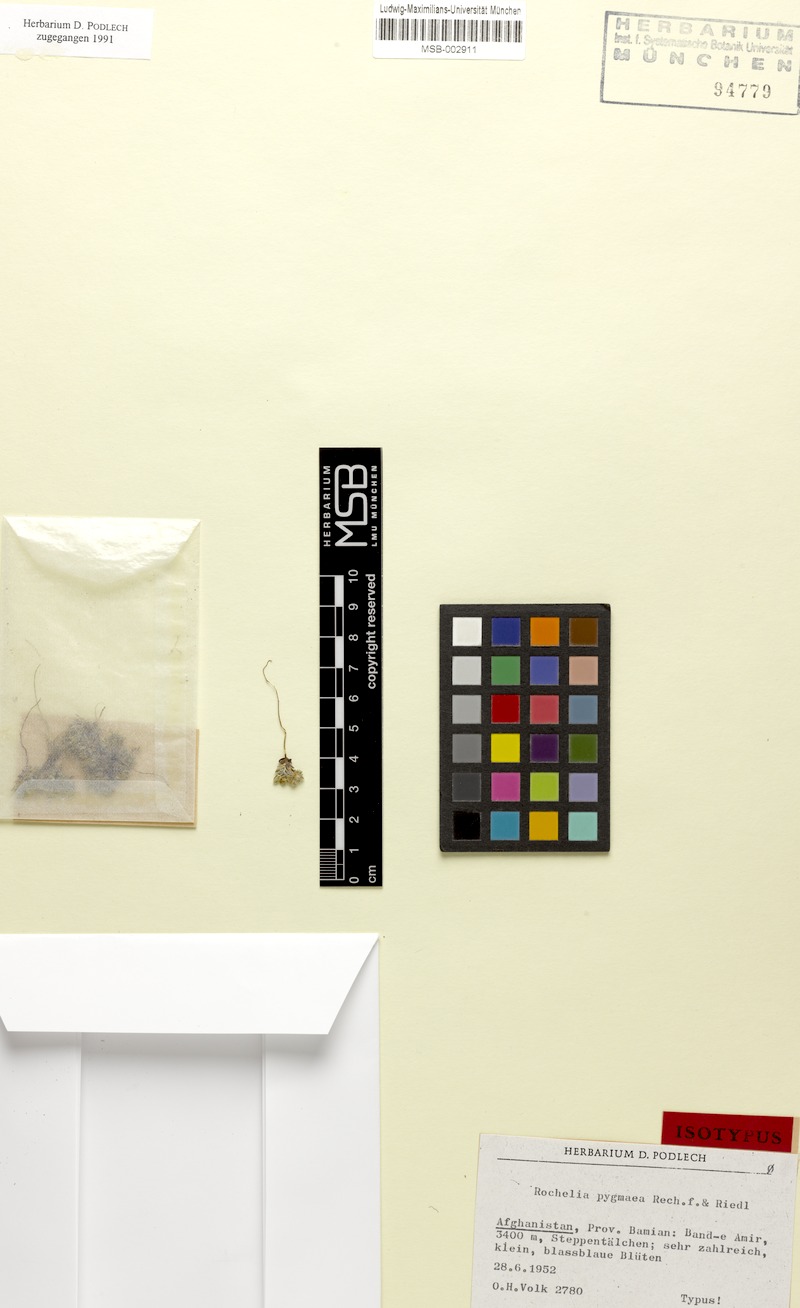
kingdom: Plantae
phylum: Tracheophyta
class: Magnoliopsida
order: Boraginales
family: Boraginaceae
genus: Rochelia
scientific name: Rochelia rectipes
